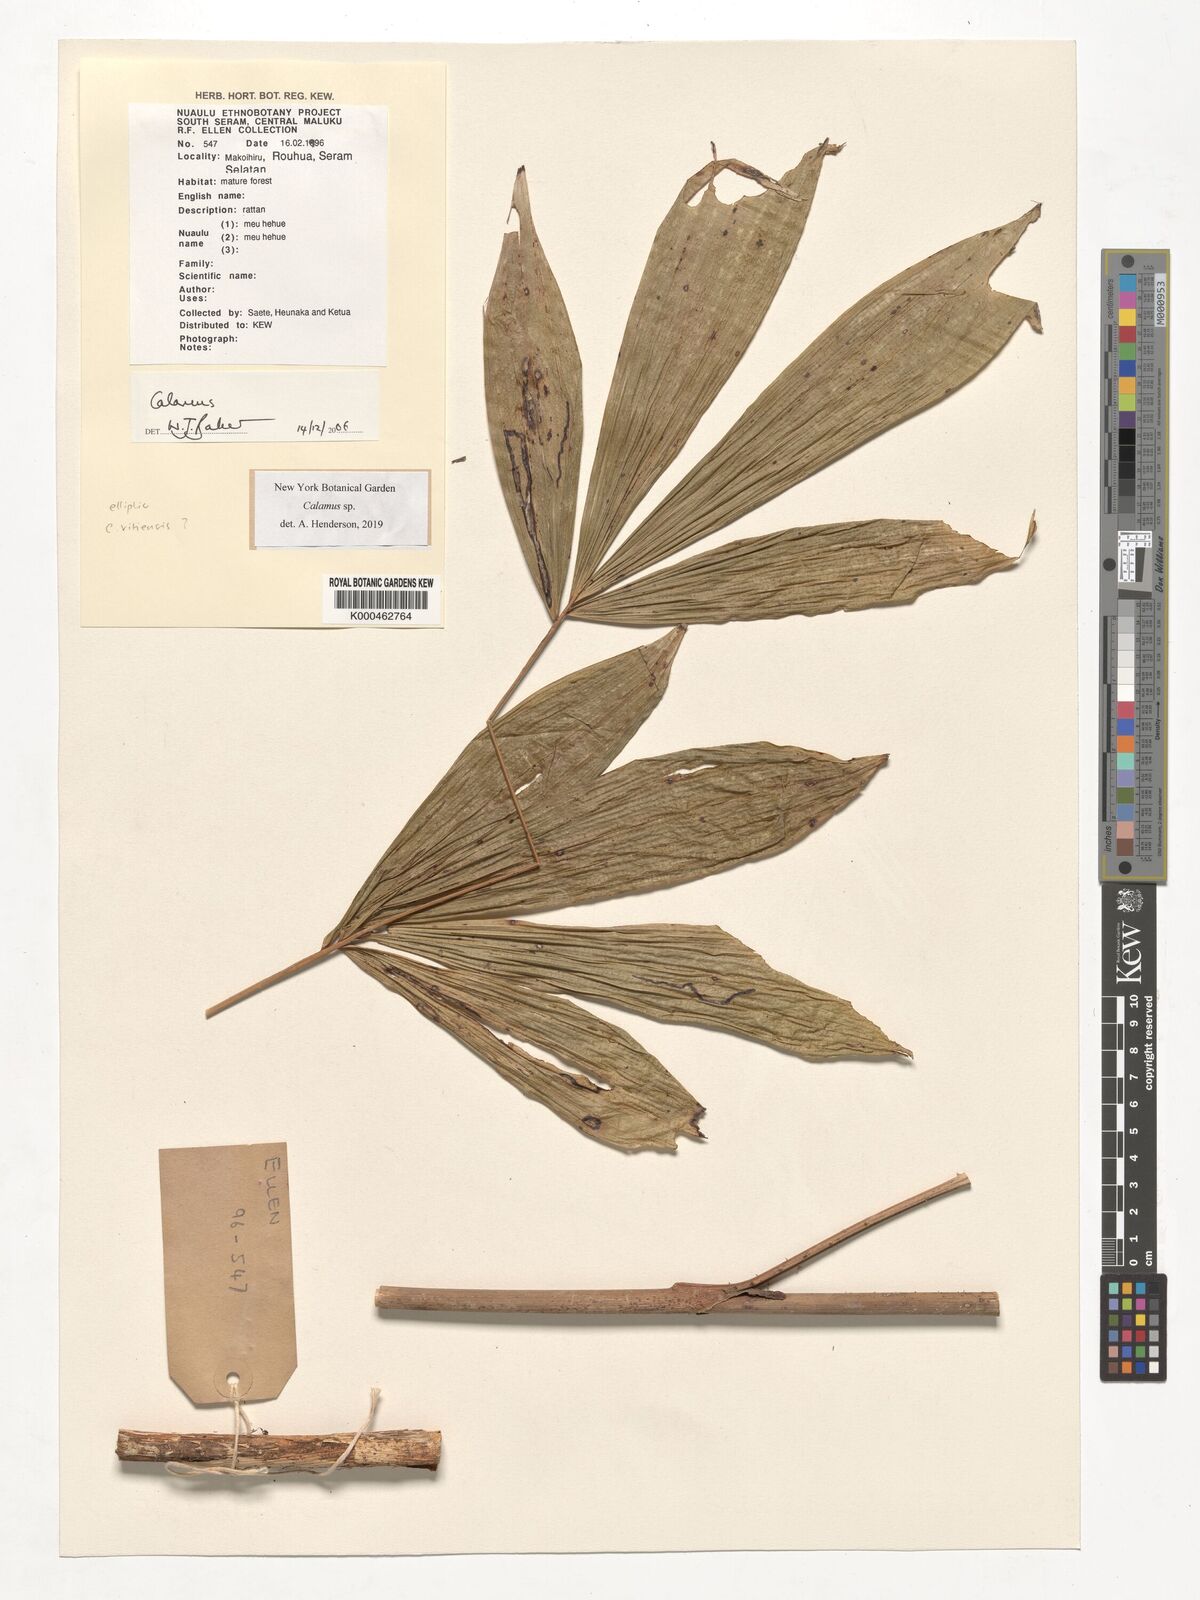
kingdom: Plantae
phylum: Tracheophyta
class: Liliopsida
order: Arecales
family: Arecaceae
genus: Calamus
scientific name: Calamus
